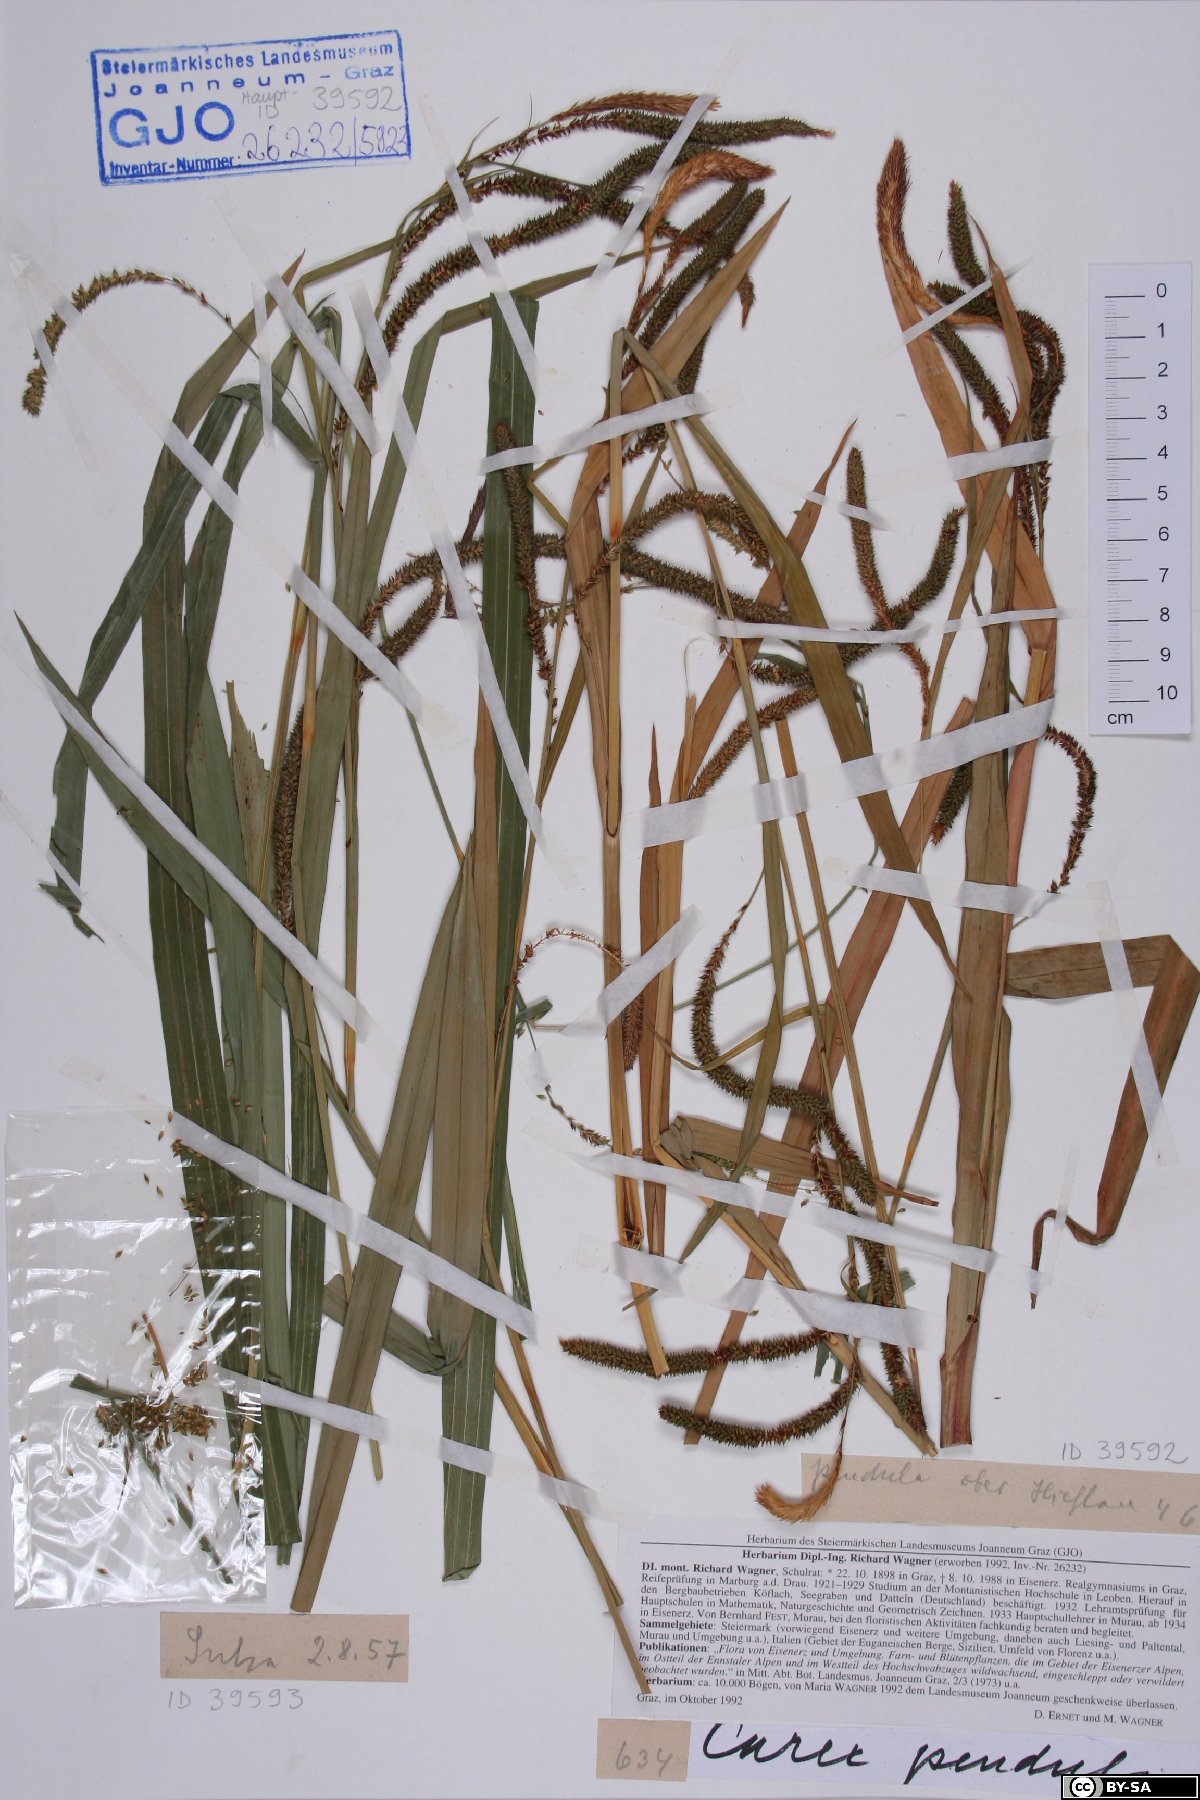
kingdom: Plantae
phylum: Tracheophyta
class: Liliopsida
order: Poales
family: Cyperaceae
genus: Carex
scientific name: Carex pendula
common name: Pendulous sedge
